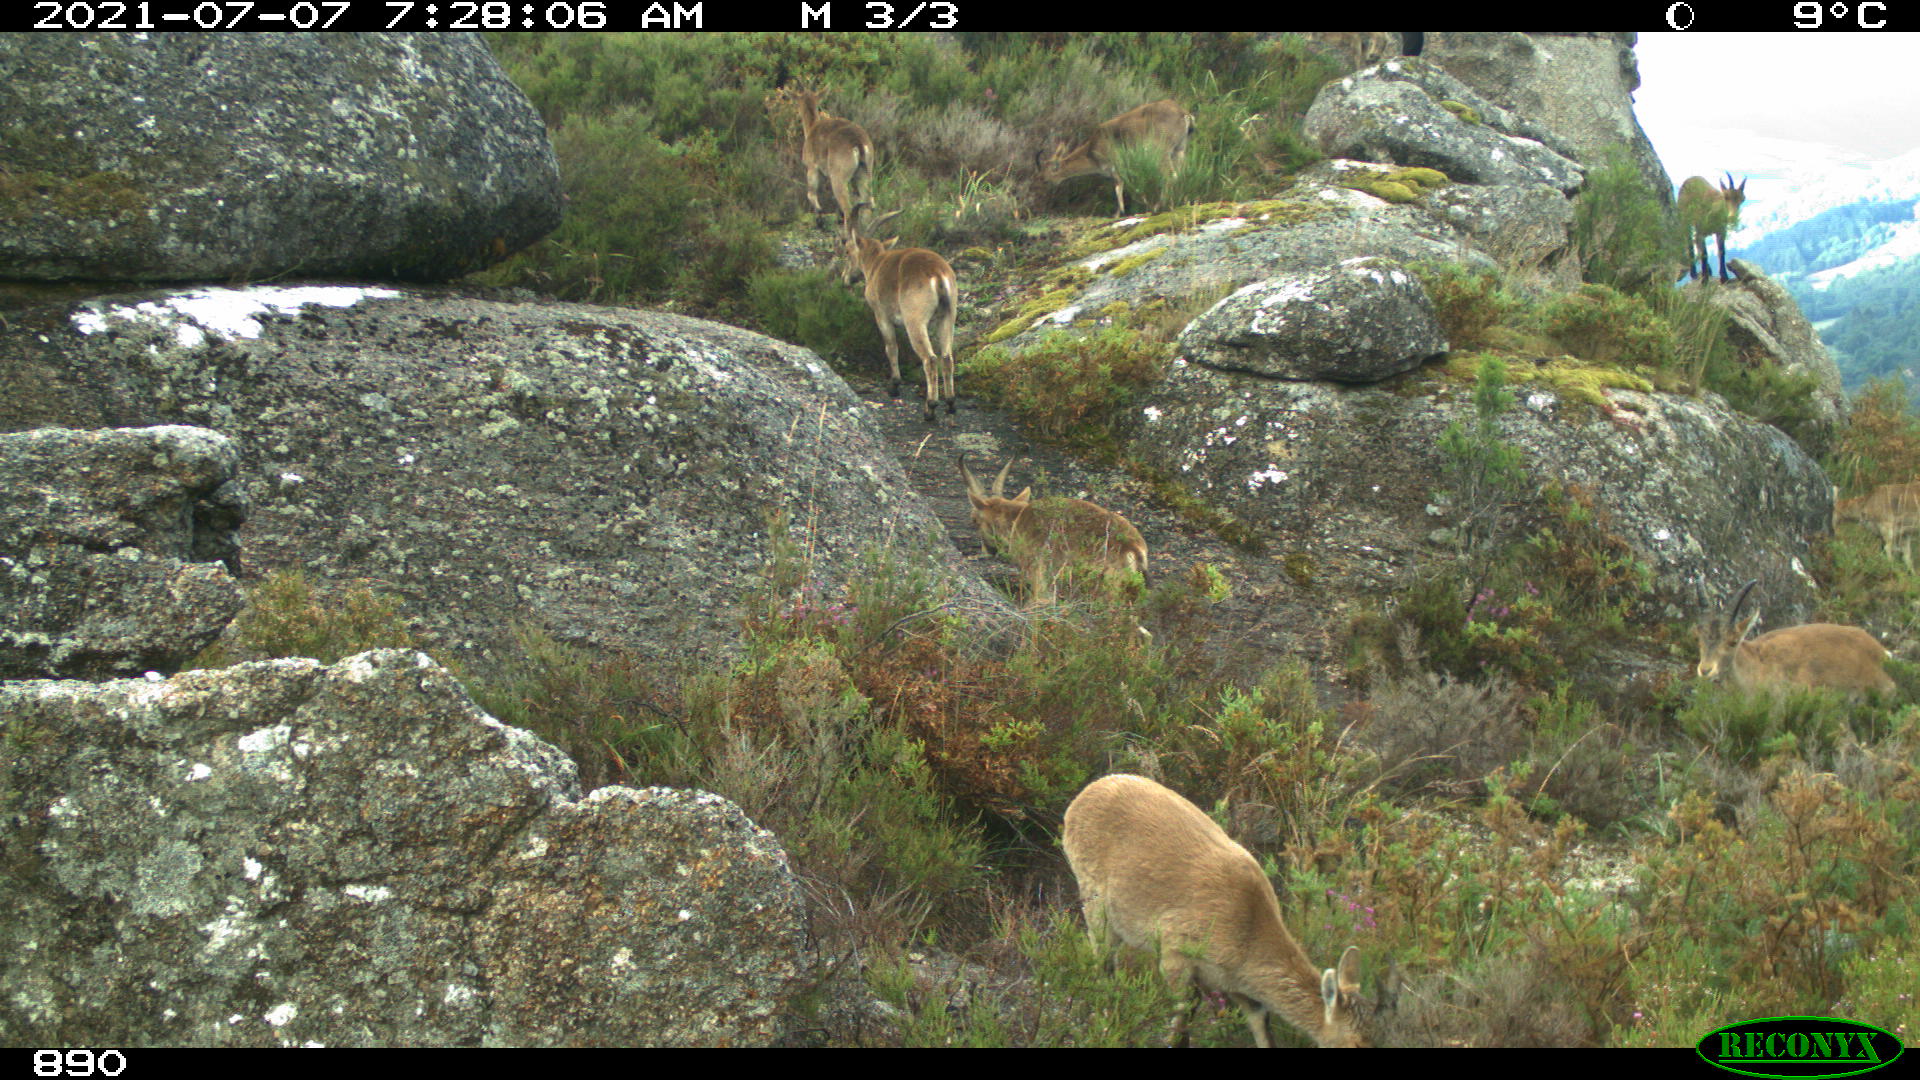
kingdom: Animalia
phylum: Chordata
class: Mammalia
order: Artiodactyla
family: Bovidae
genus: Capra
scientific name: Capra pyrenaica
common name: Spanish ibex
